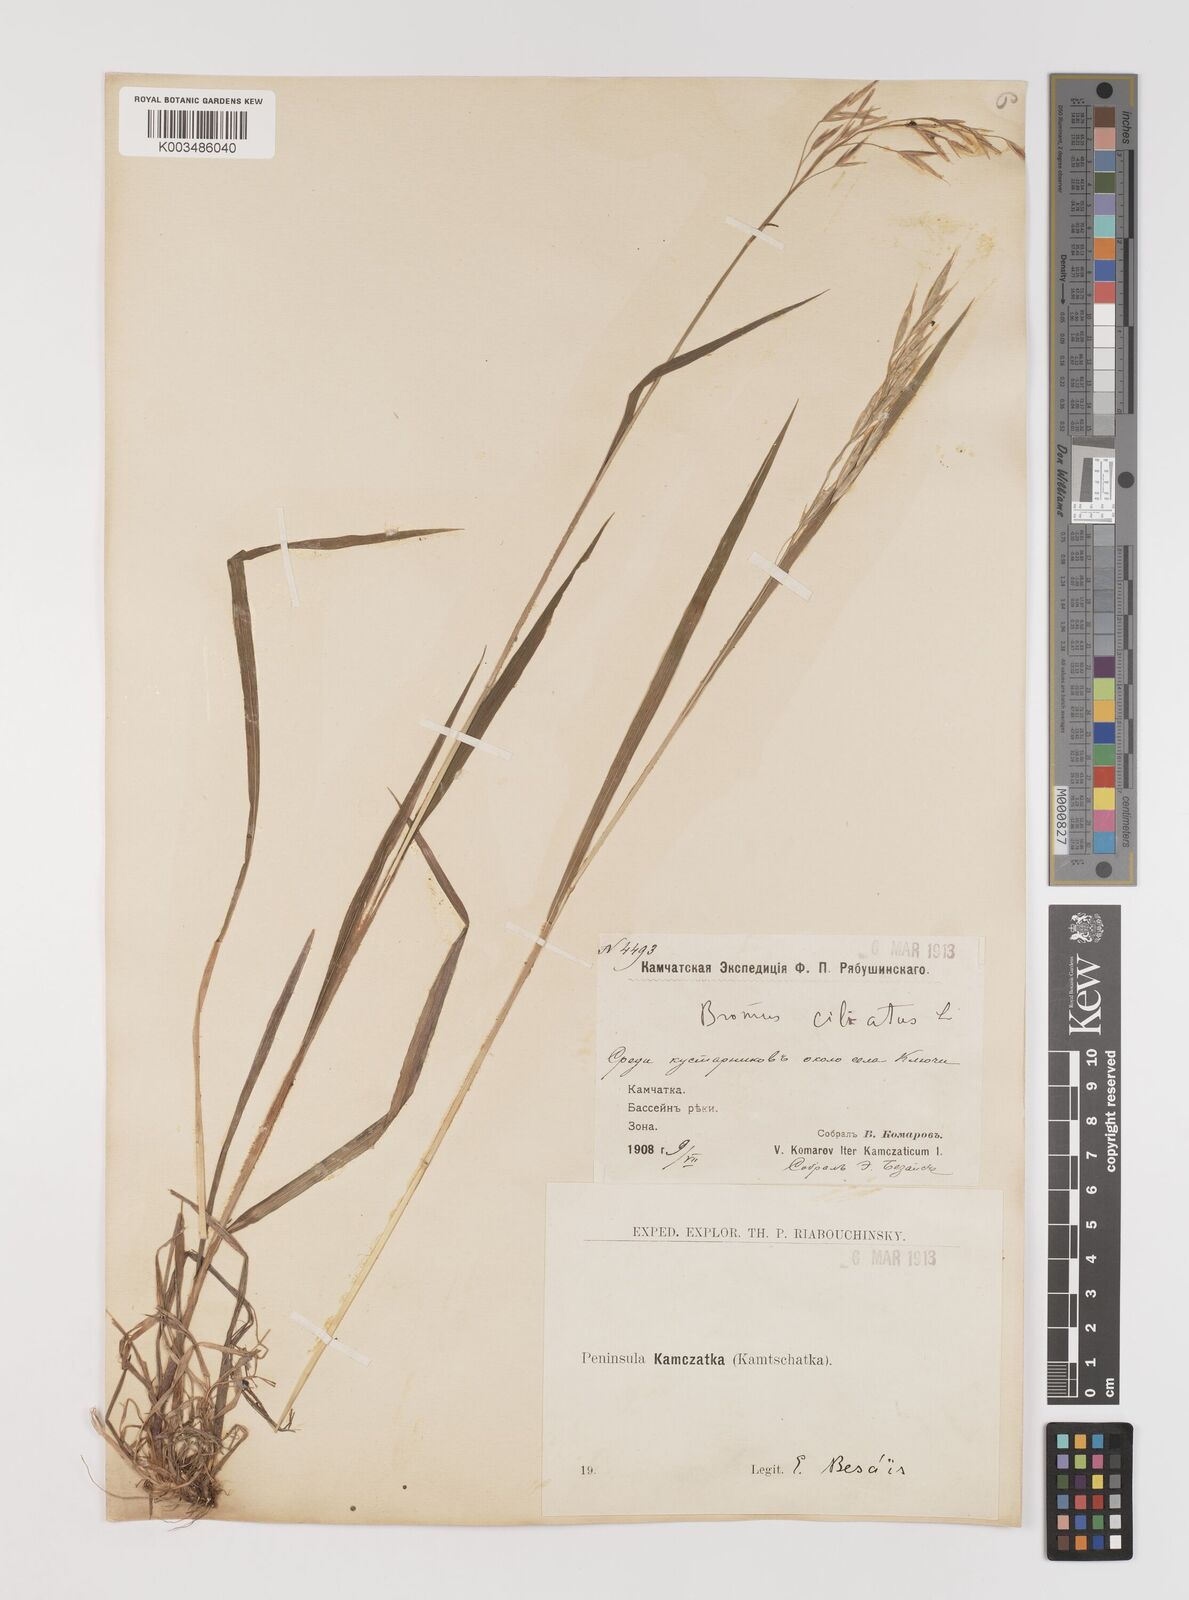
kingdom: Plantae
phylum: Tracheophyta
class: Liliopsida
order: Poales
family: Poaceae
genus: Bromus
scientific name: Bromus inermis
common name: Smooth brome
